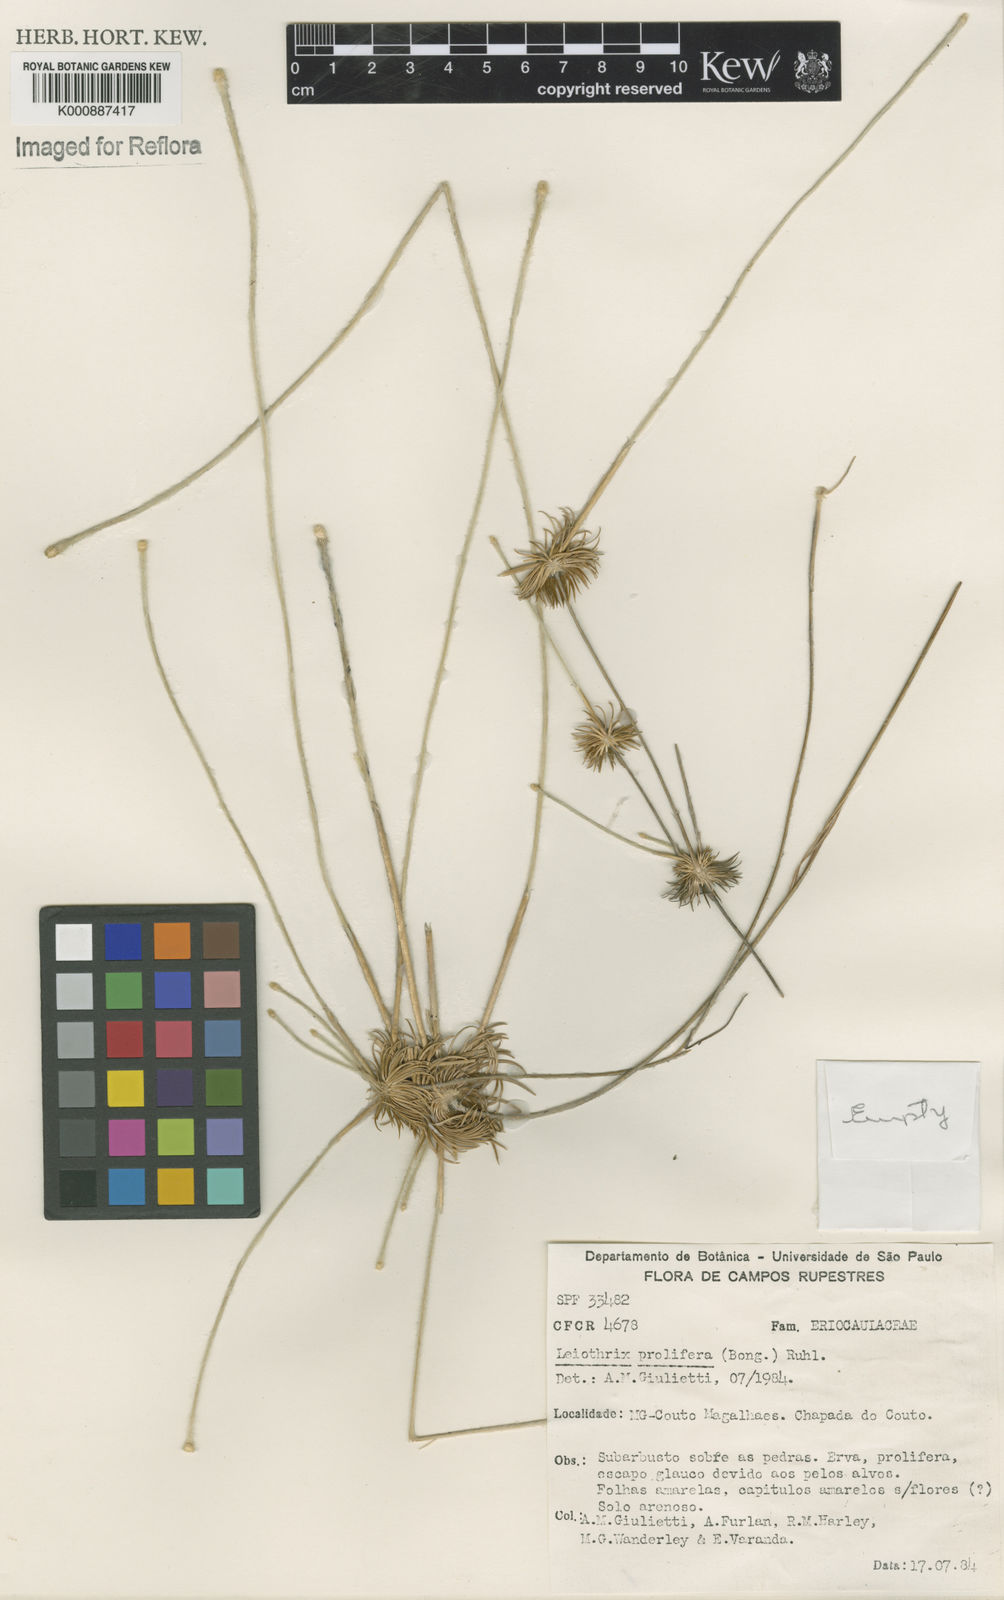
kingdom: Plantae
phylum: Tracheophyta
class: Liliopsida
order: Poales
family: Eriocaulaceae
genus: Leiothrix
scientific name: Leiothrix prolifera
